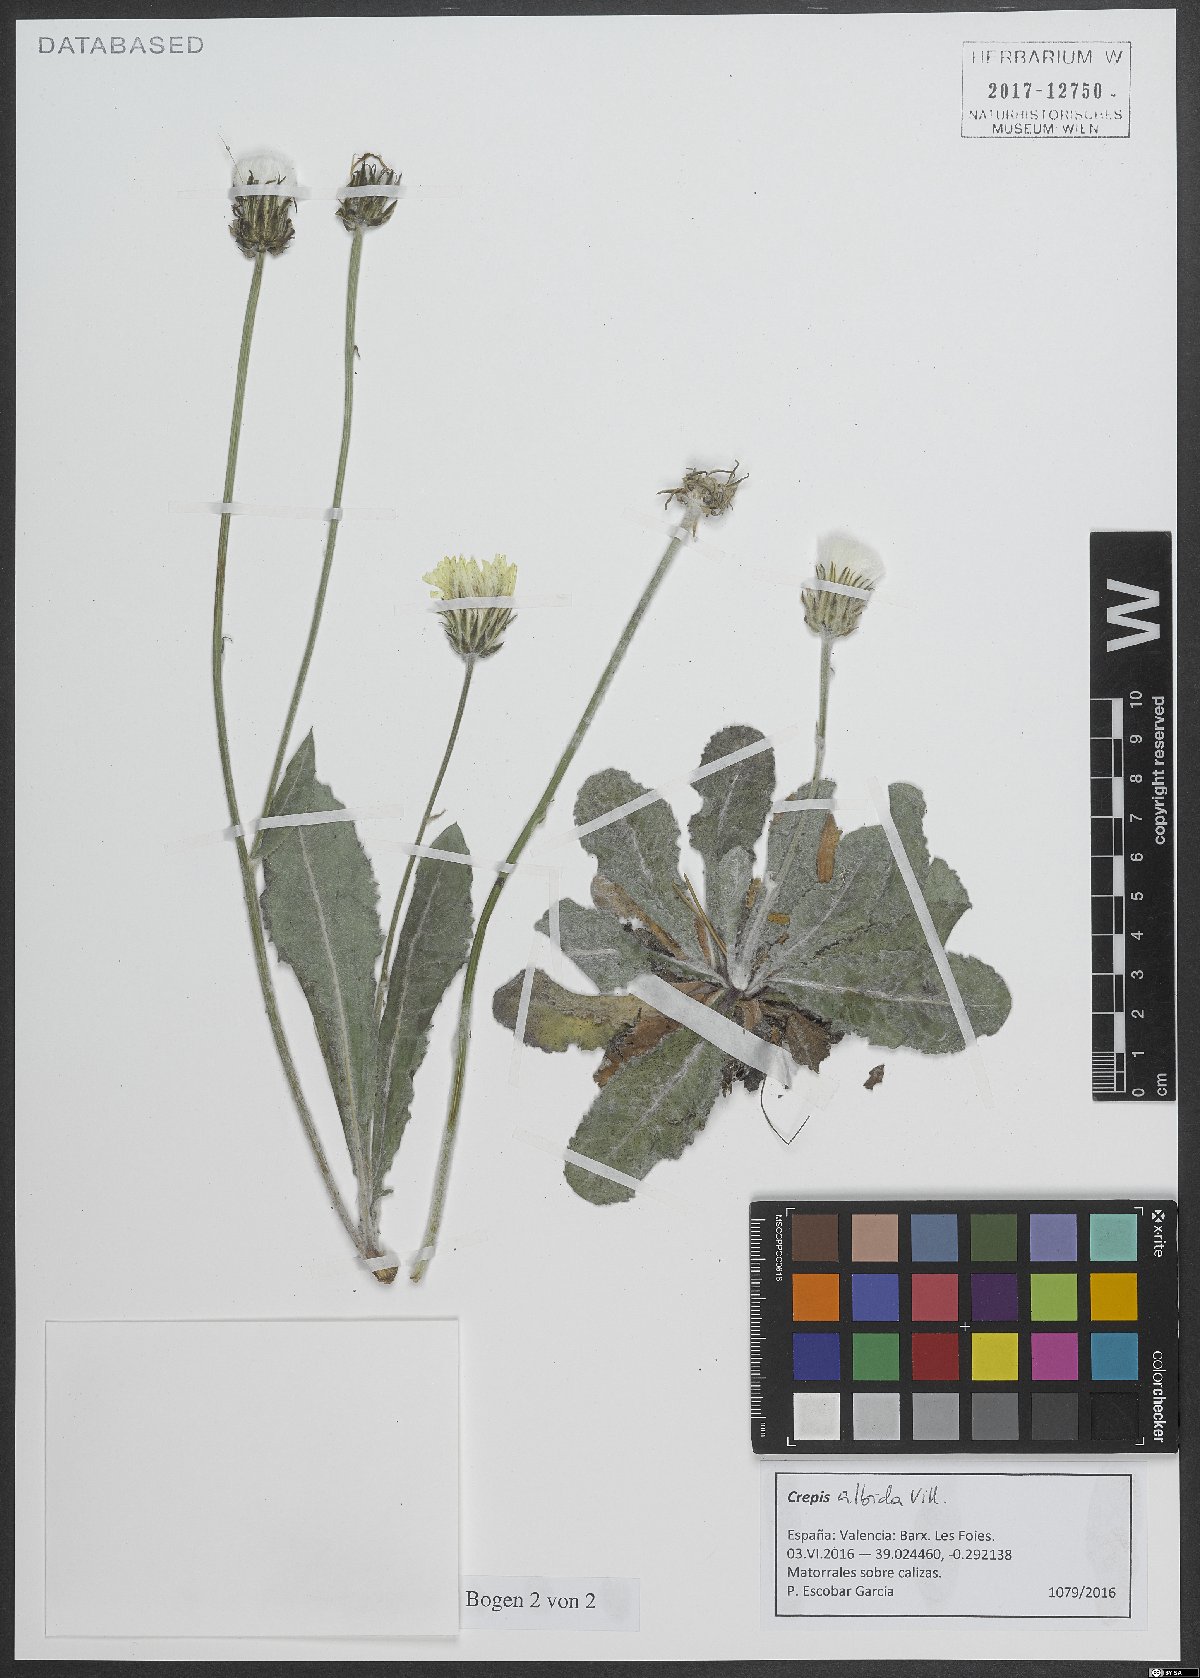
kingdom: Plantae
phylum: Tracheophyta
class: Magnoliopsida
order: Asterales
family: Asteraceae
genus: Crepis
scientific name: Crepis albida
